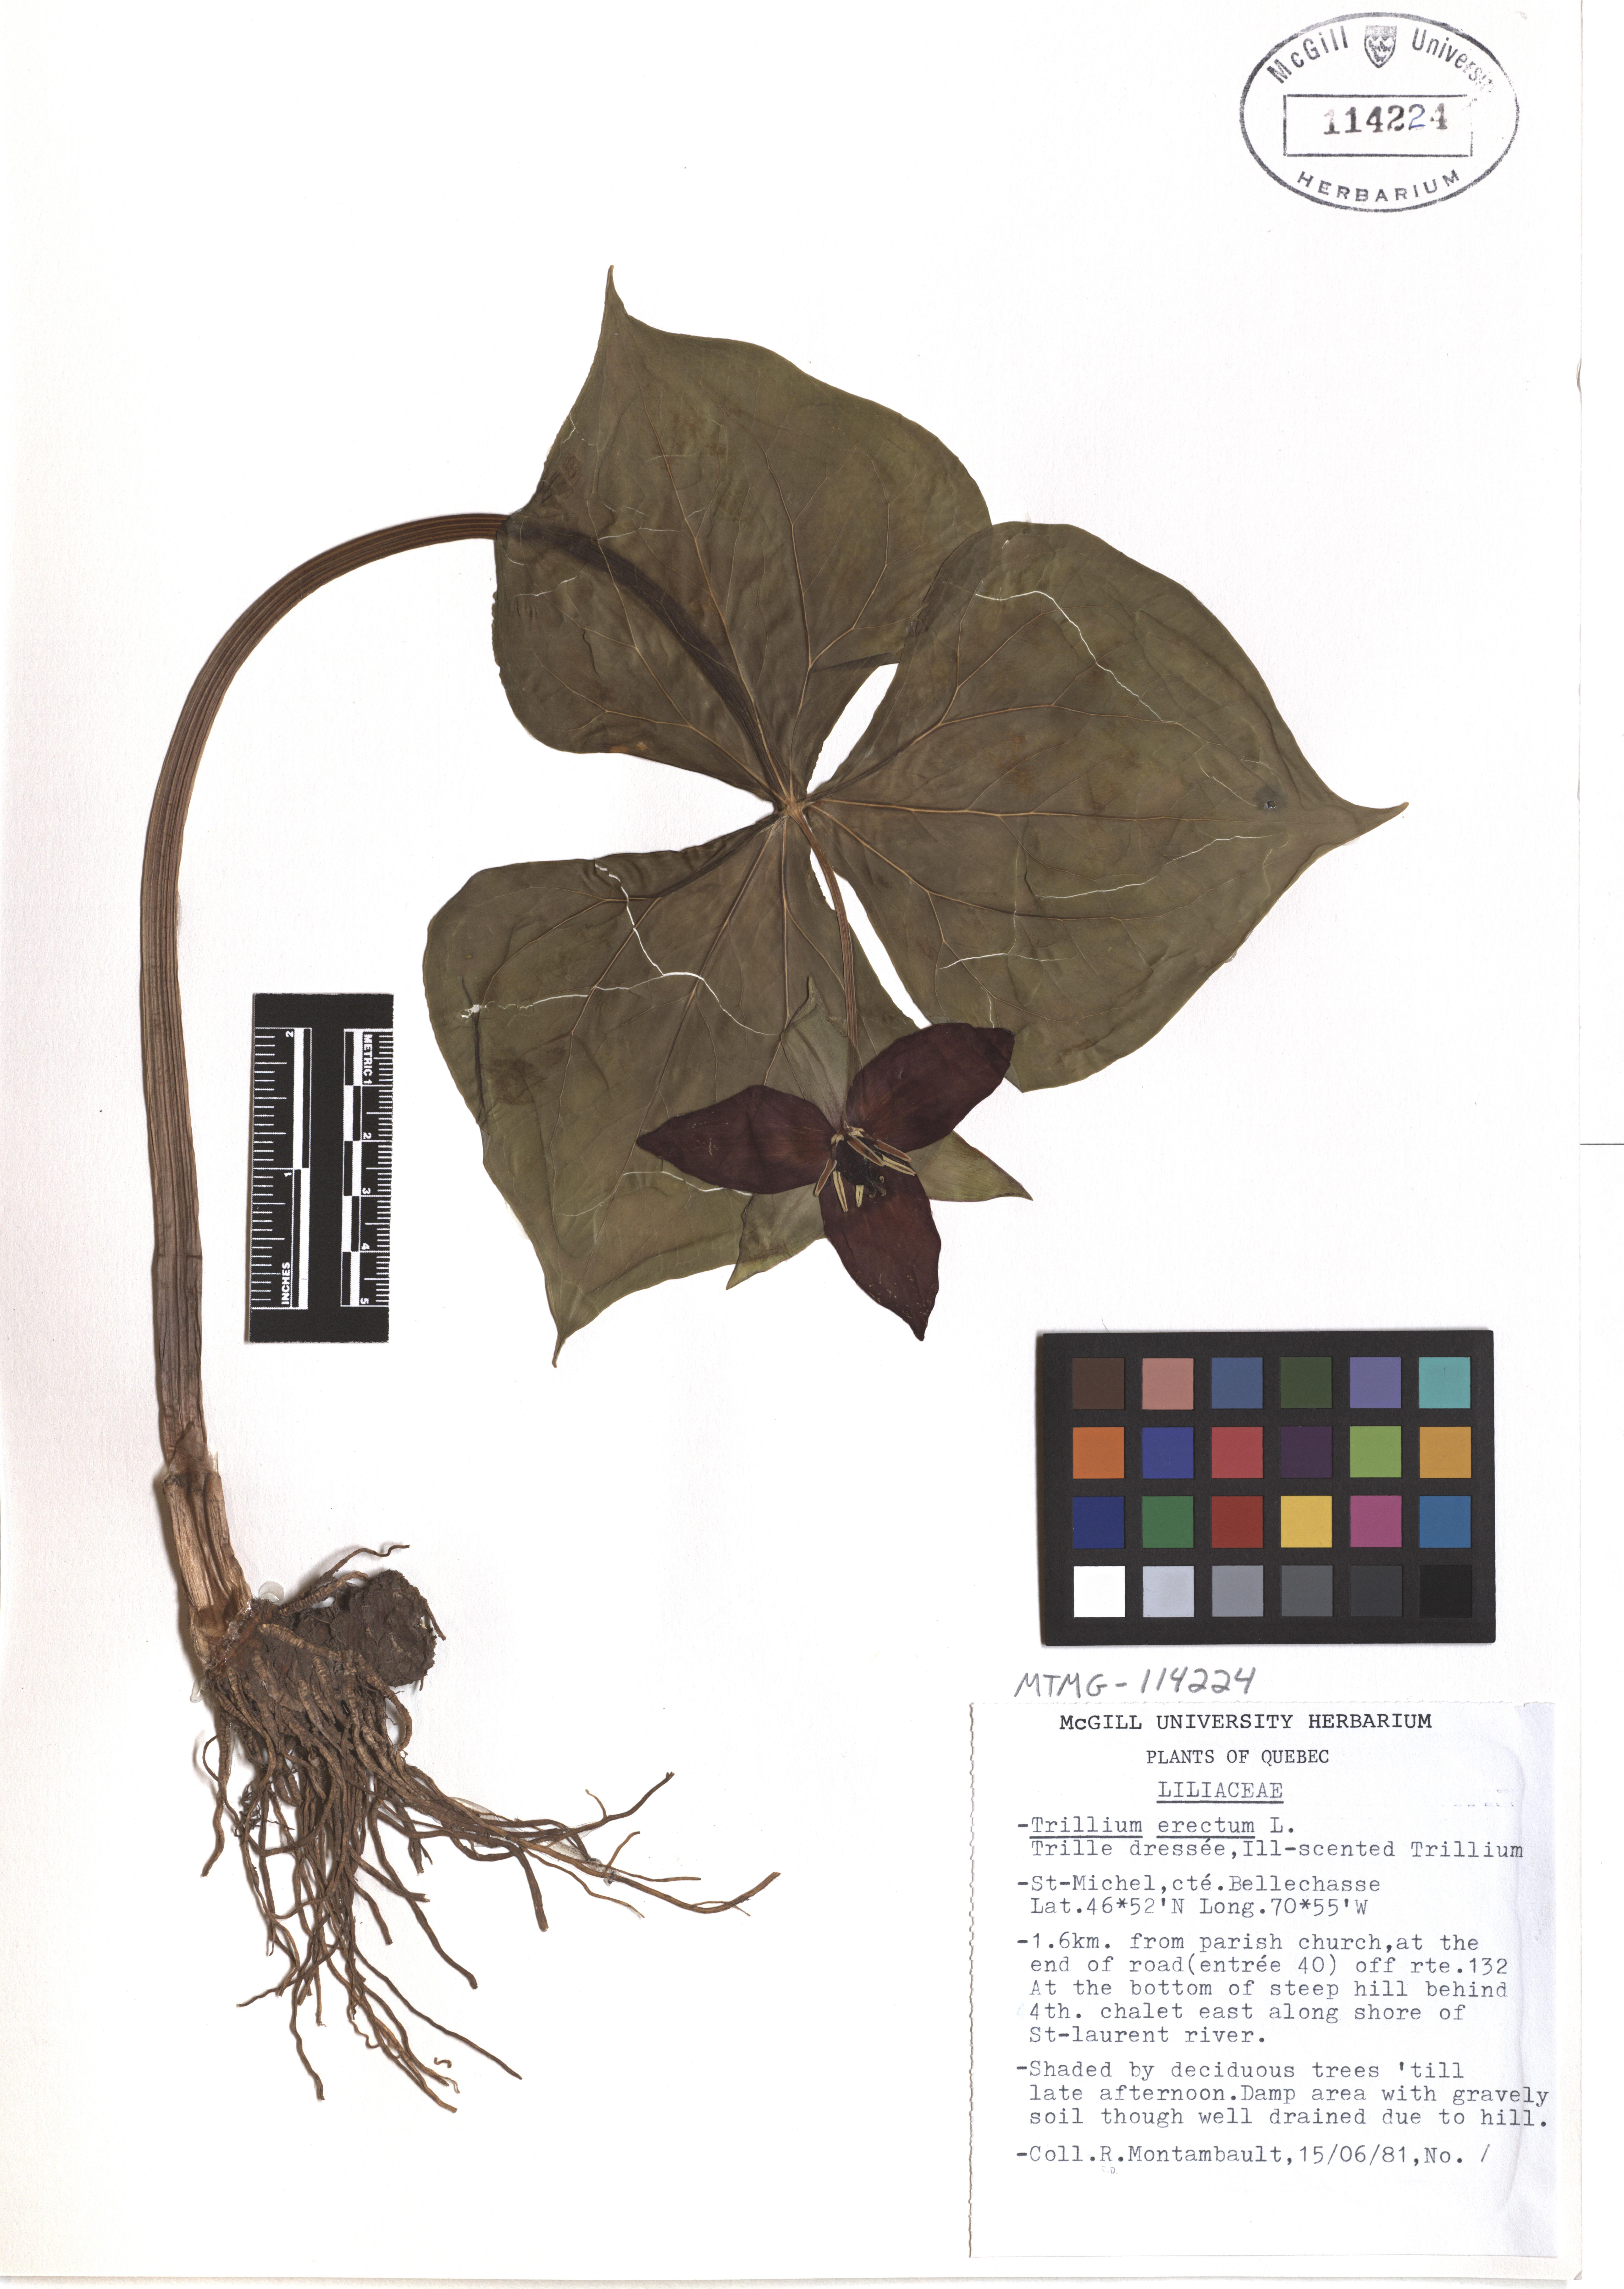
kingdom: Plantae
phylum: Tracheophyta
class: Liliopsida
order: Liliales
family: Melanthiaceae
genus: Trillium
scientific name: Trillium erectum
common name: Purple trillium
